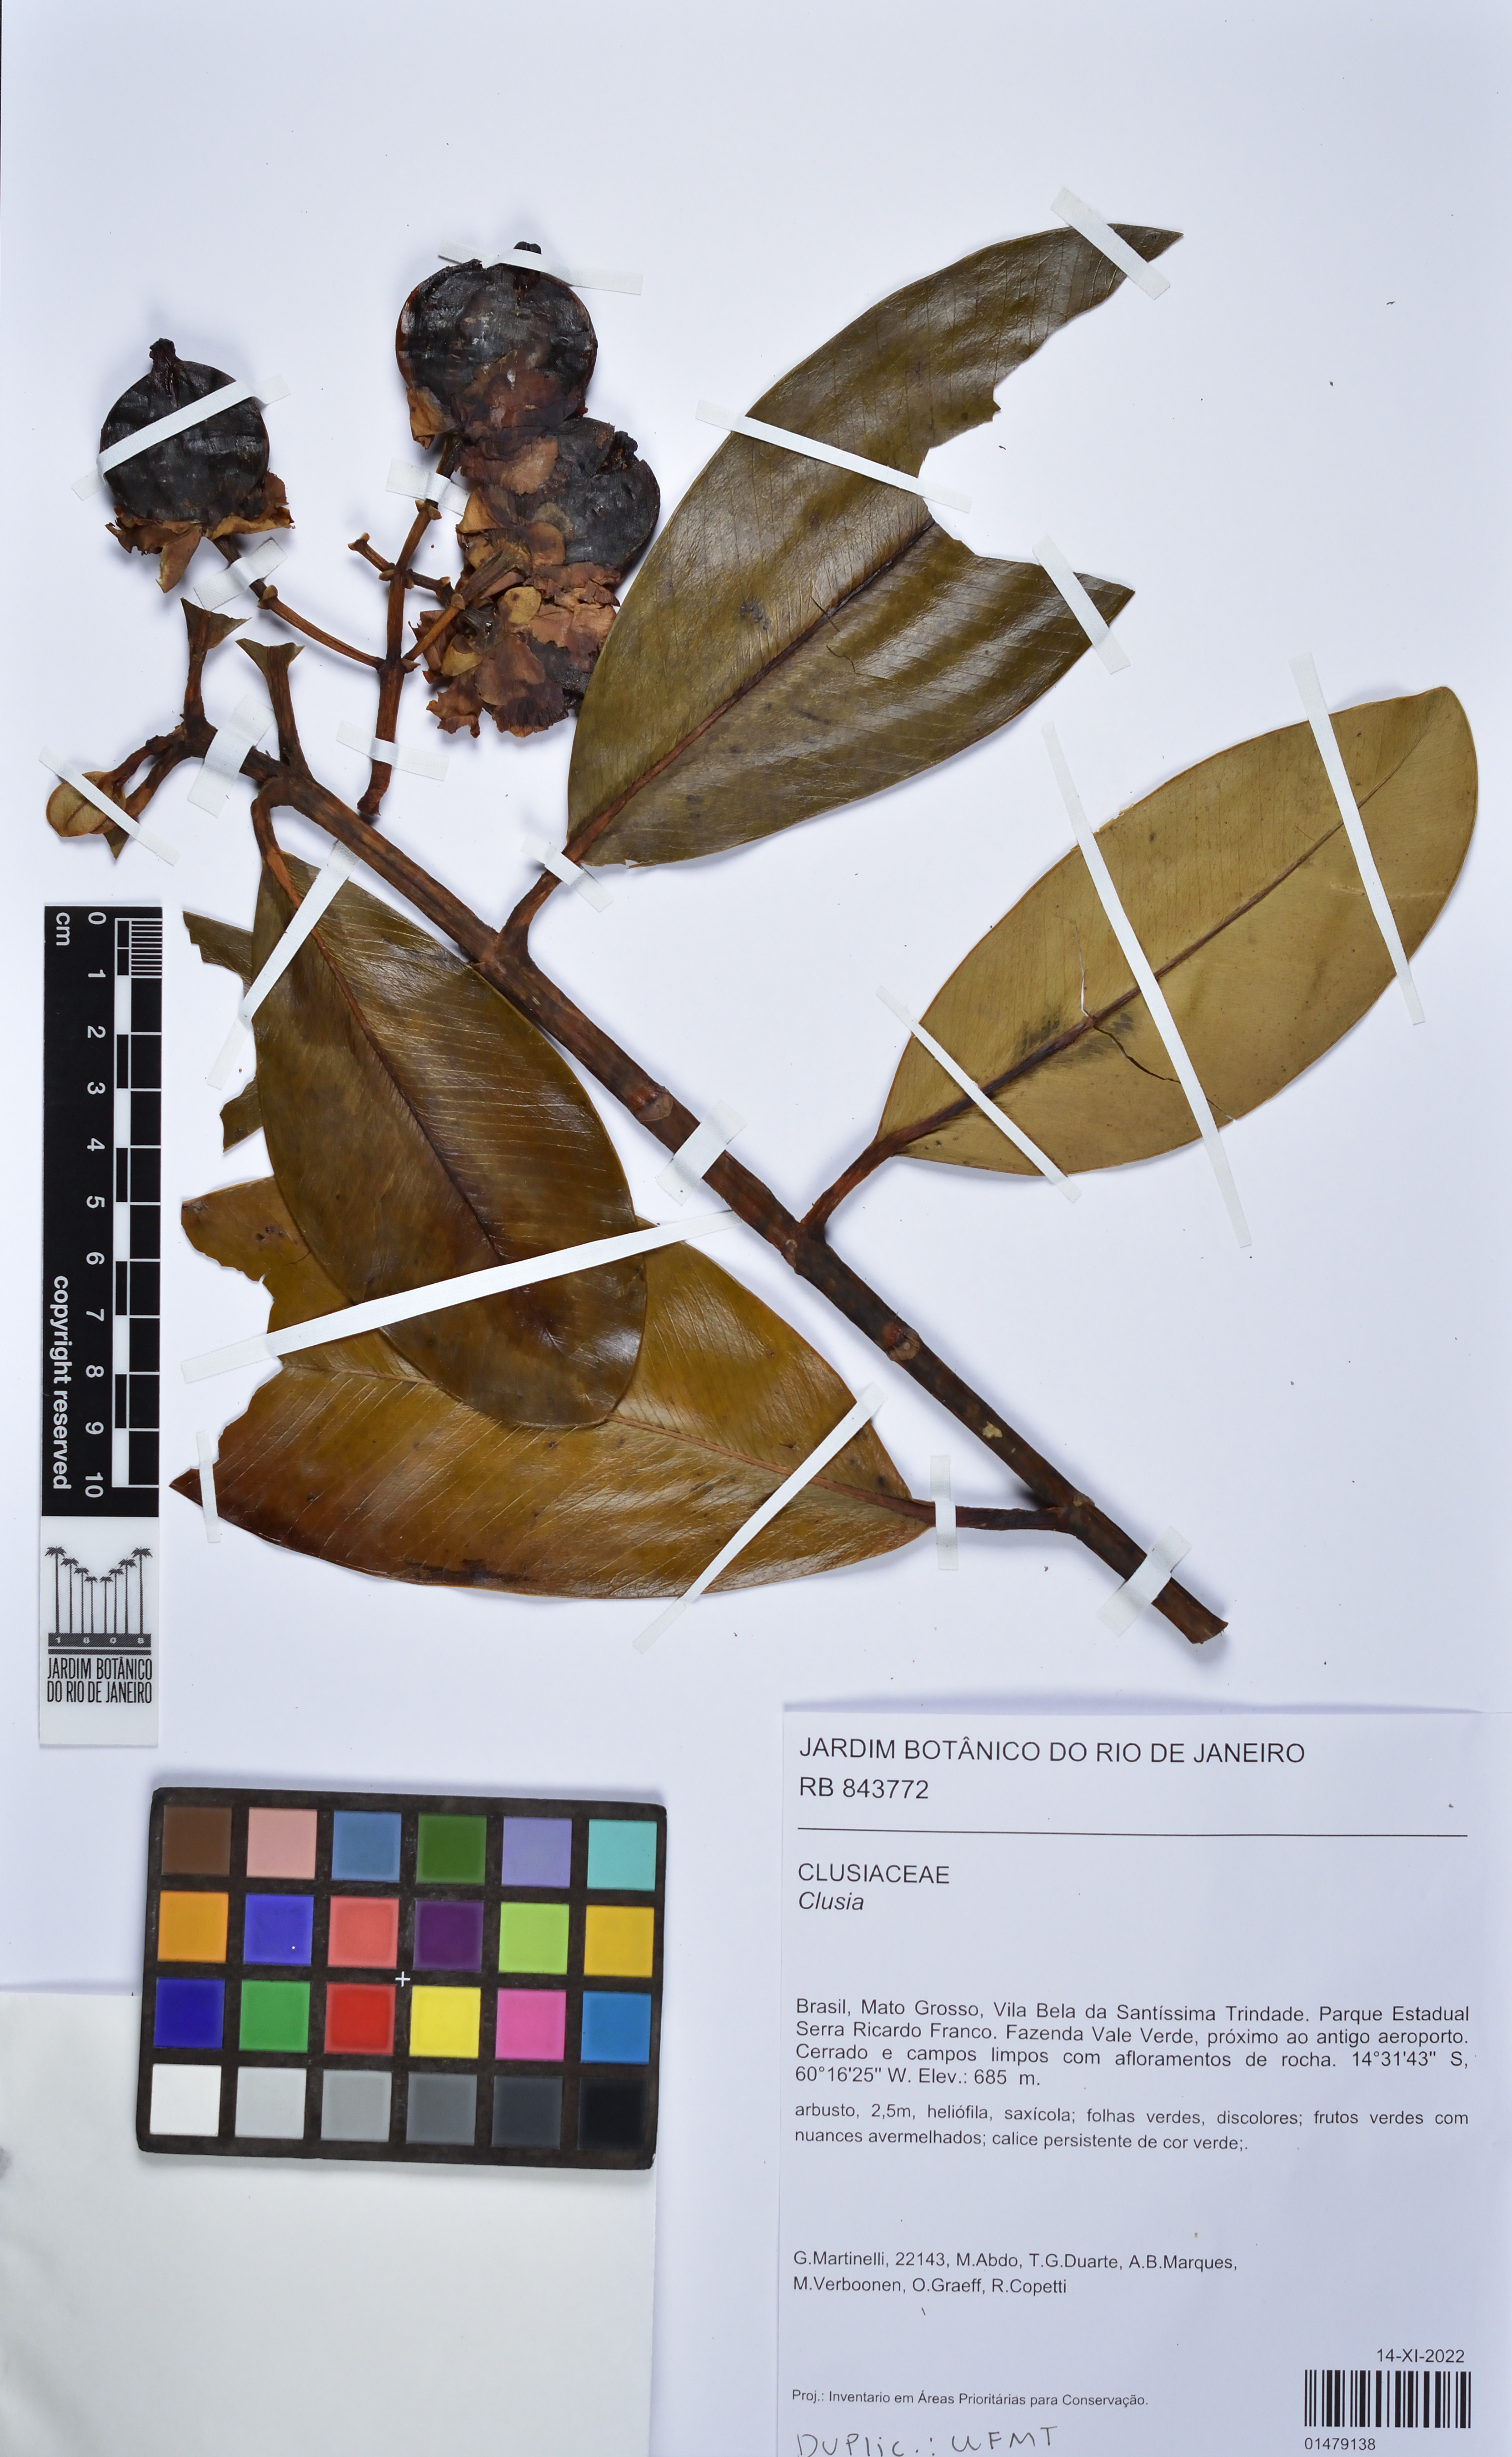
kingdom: Plantae
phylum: Tracheophyta
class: Magnoliopsida
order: Malpighiales
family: Clusiaceae
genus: Clusia
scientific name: Clusia
